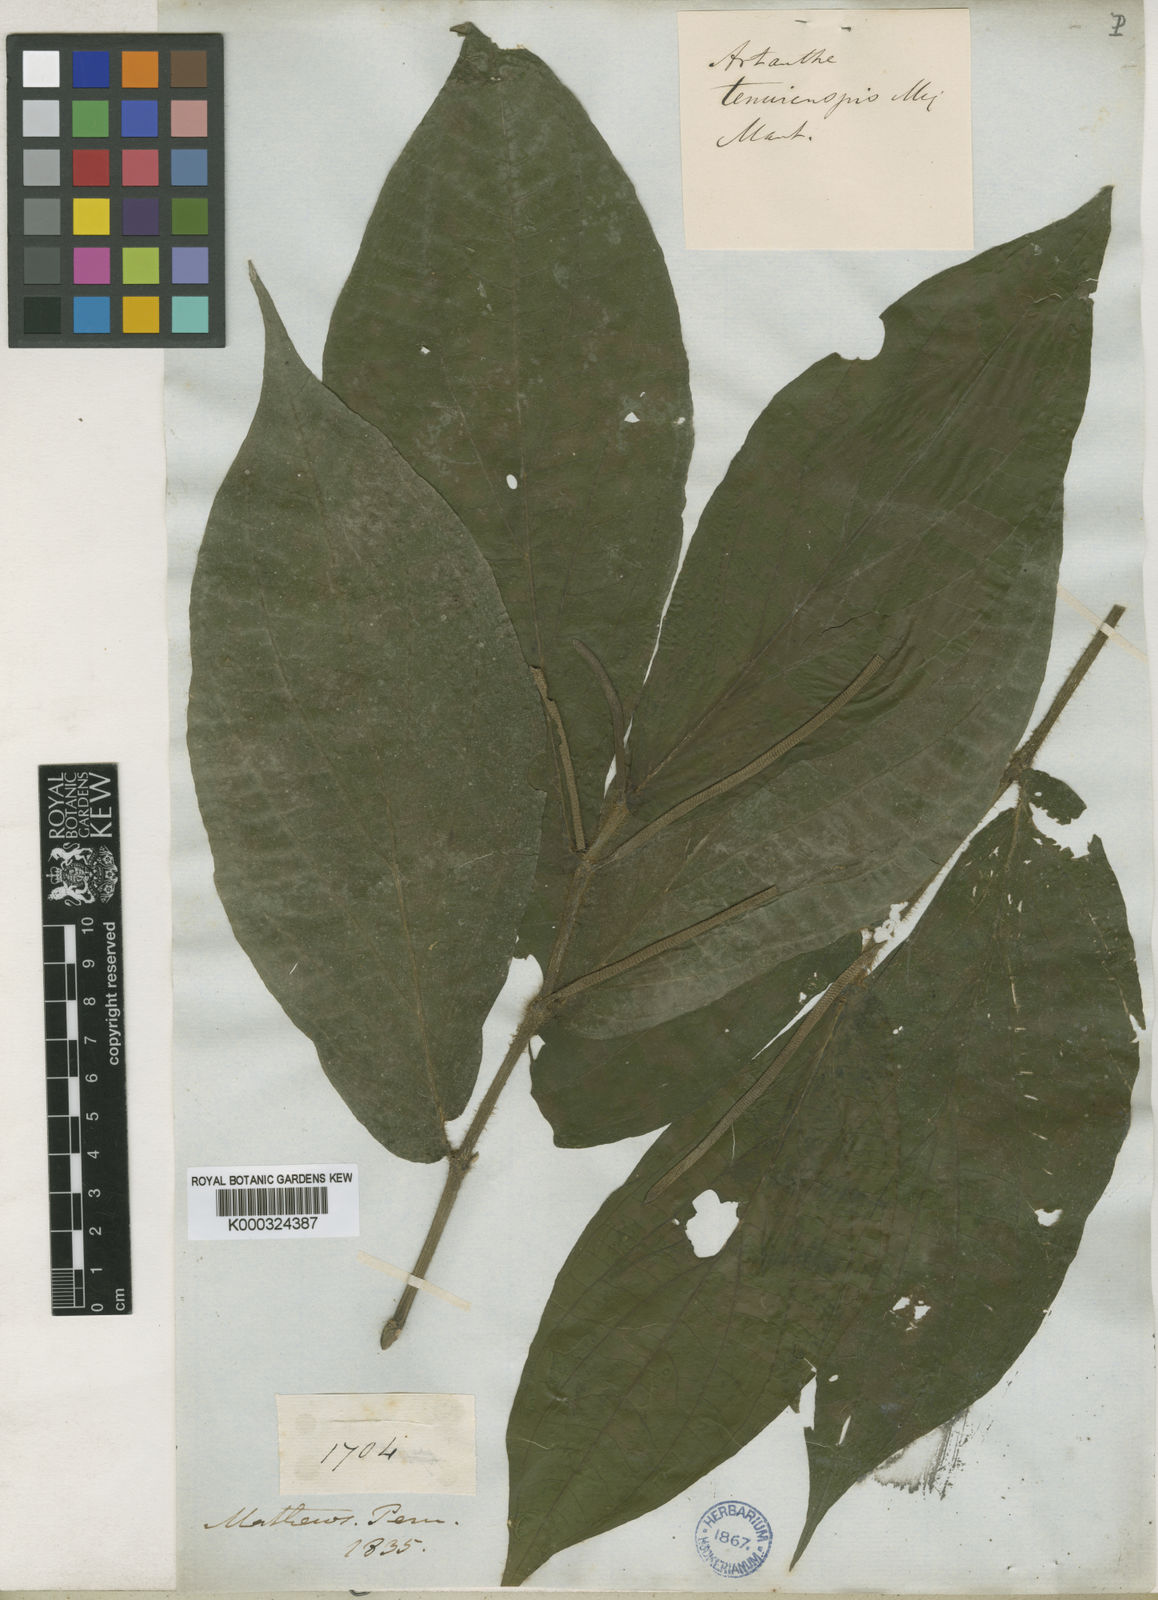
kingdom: Plantae
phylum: Tracheophyta
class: Magnoliopsida
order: Piperales
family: Piperaceae
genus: Piper
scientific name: Piper tenuicuspe
